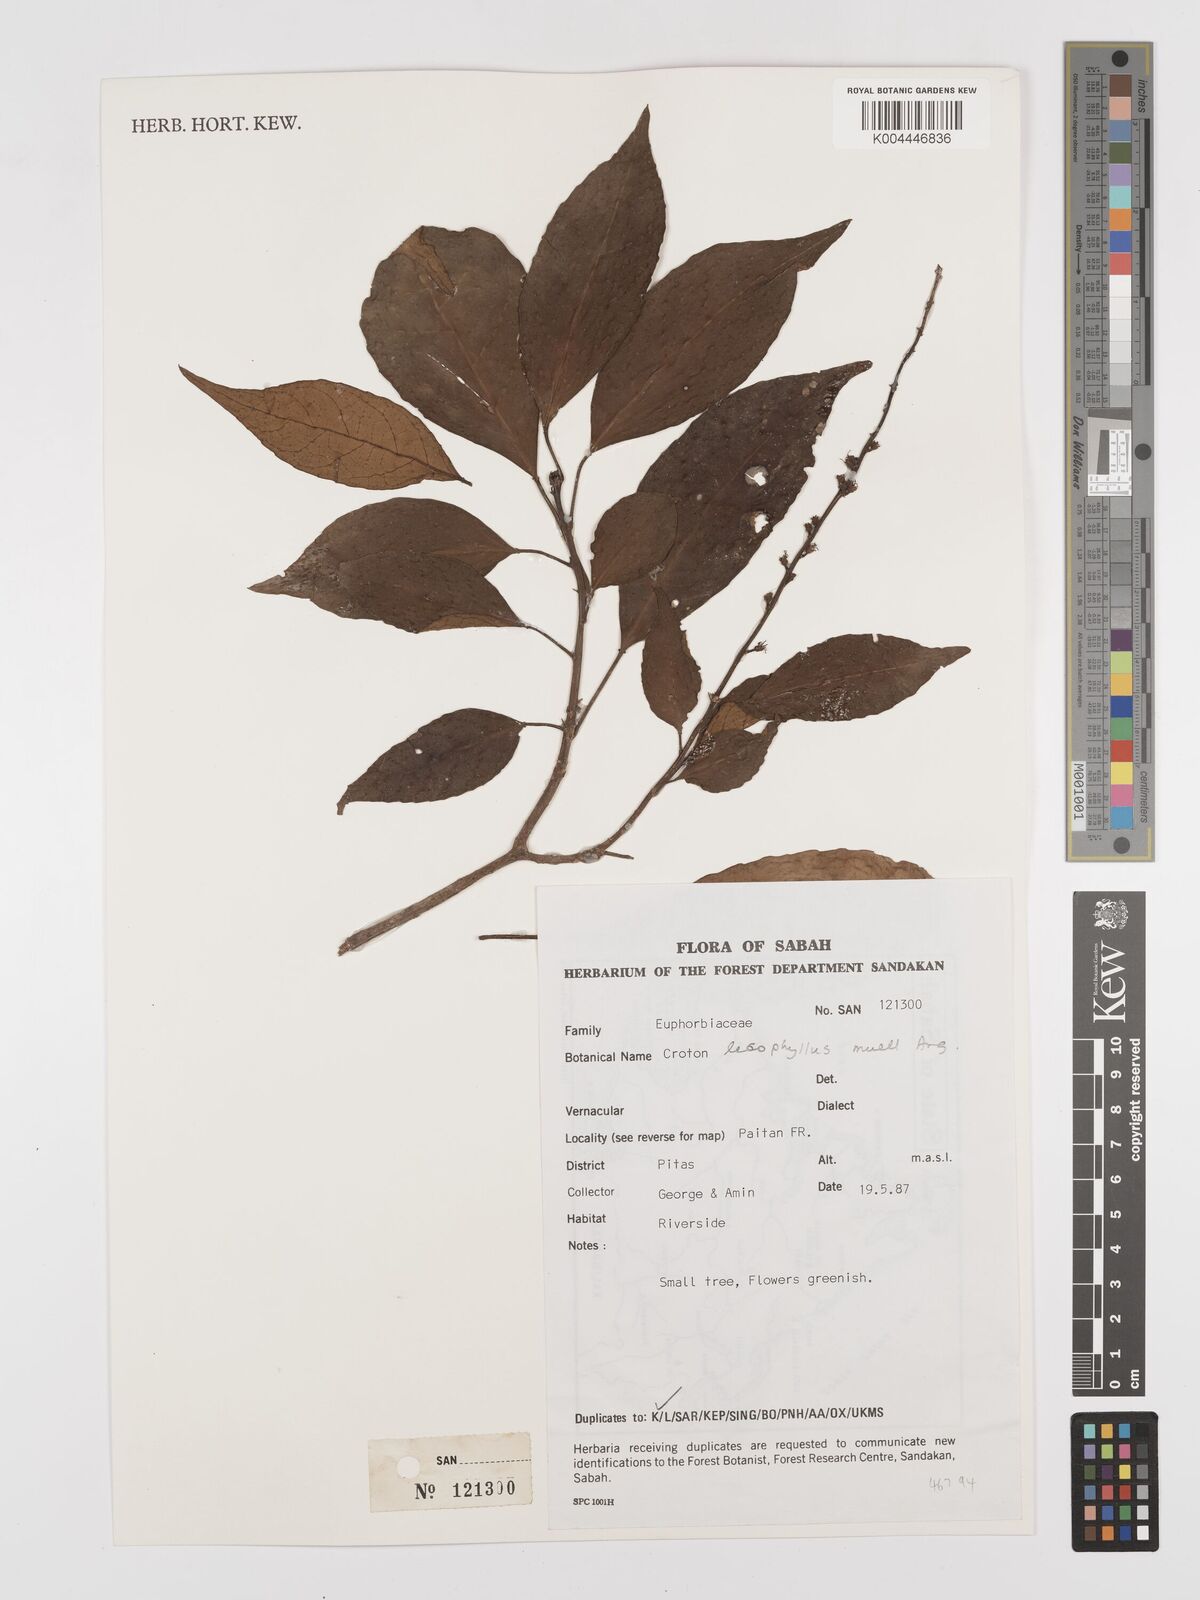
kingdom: Plantae
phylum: Tracheophyta
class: Magnoliopsida
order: Malpighiales
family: Euphorbiaceae
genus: Croton
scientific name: Croton leiophyllus
